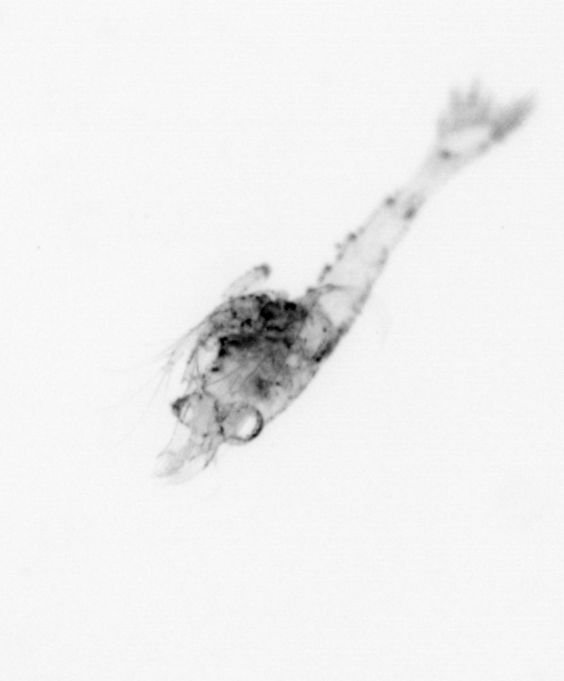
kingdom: Animalia
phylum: Arthropoda
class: Malacostraca
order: Decapoda
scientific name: Decapoda
